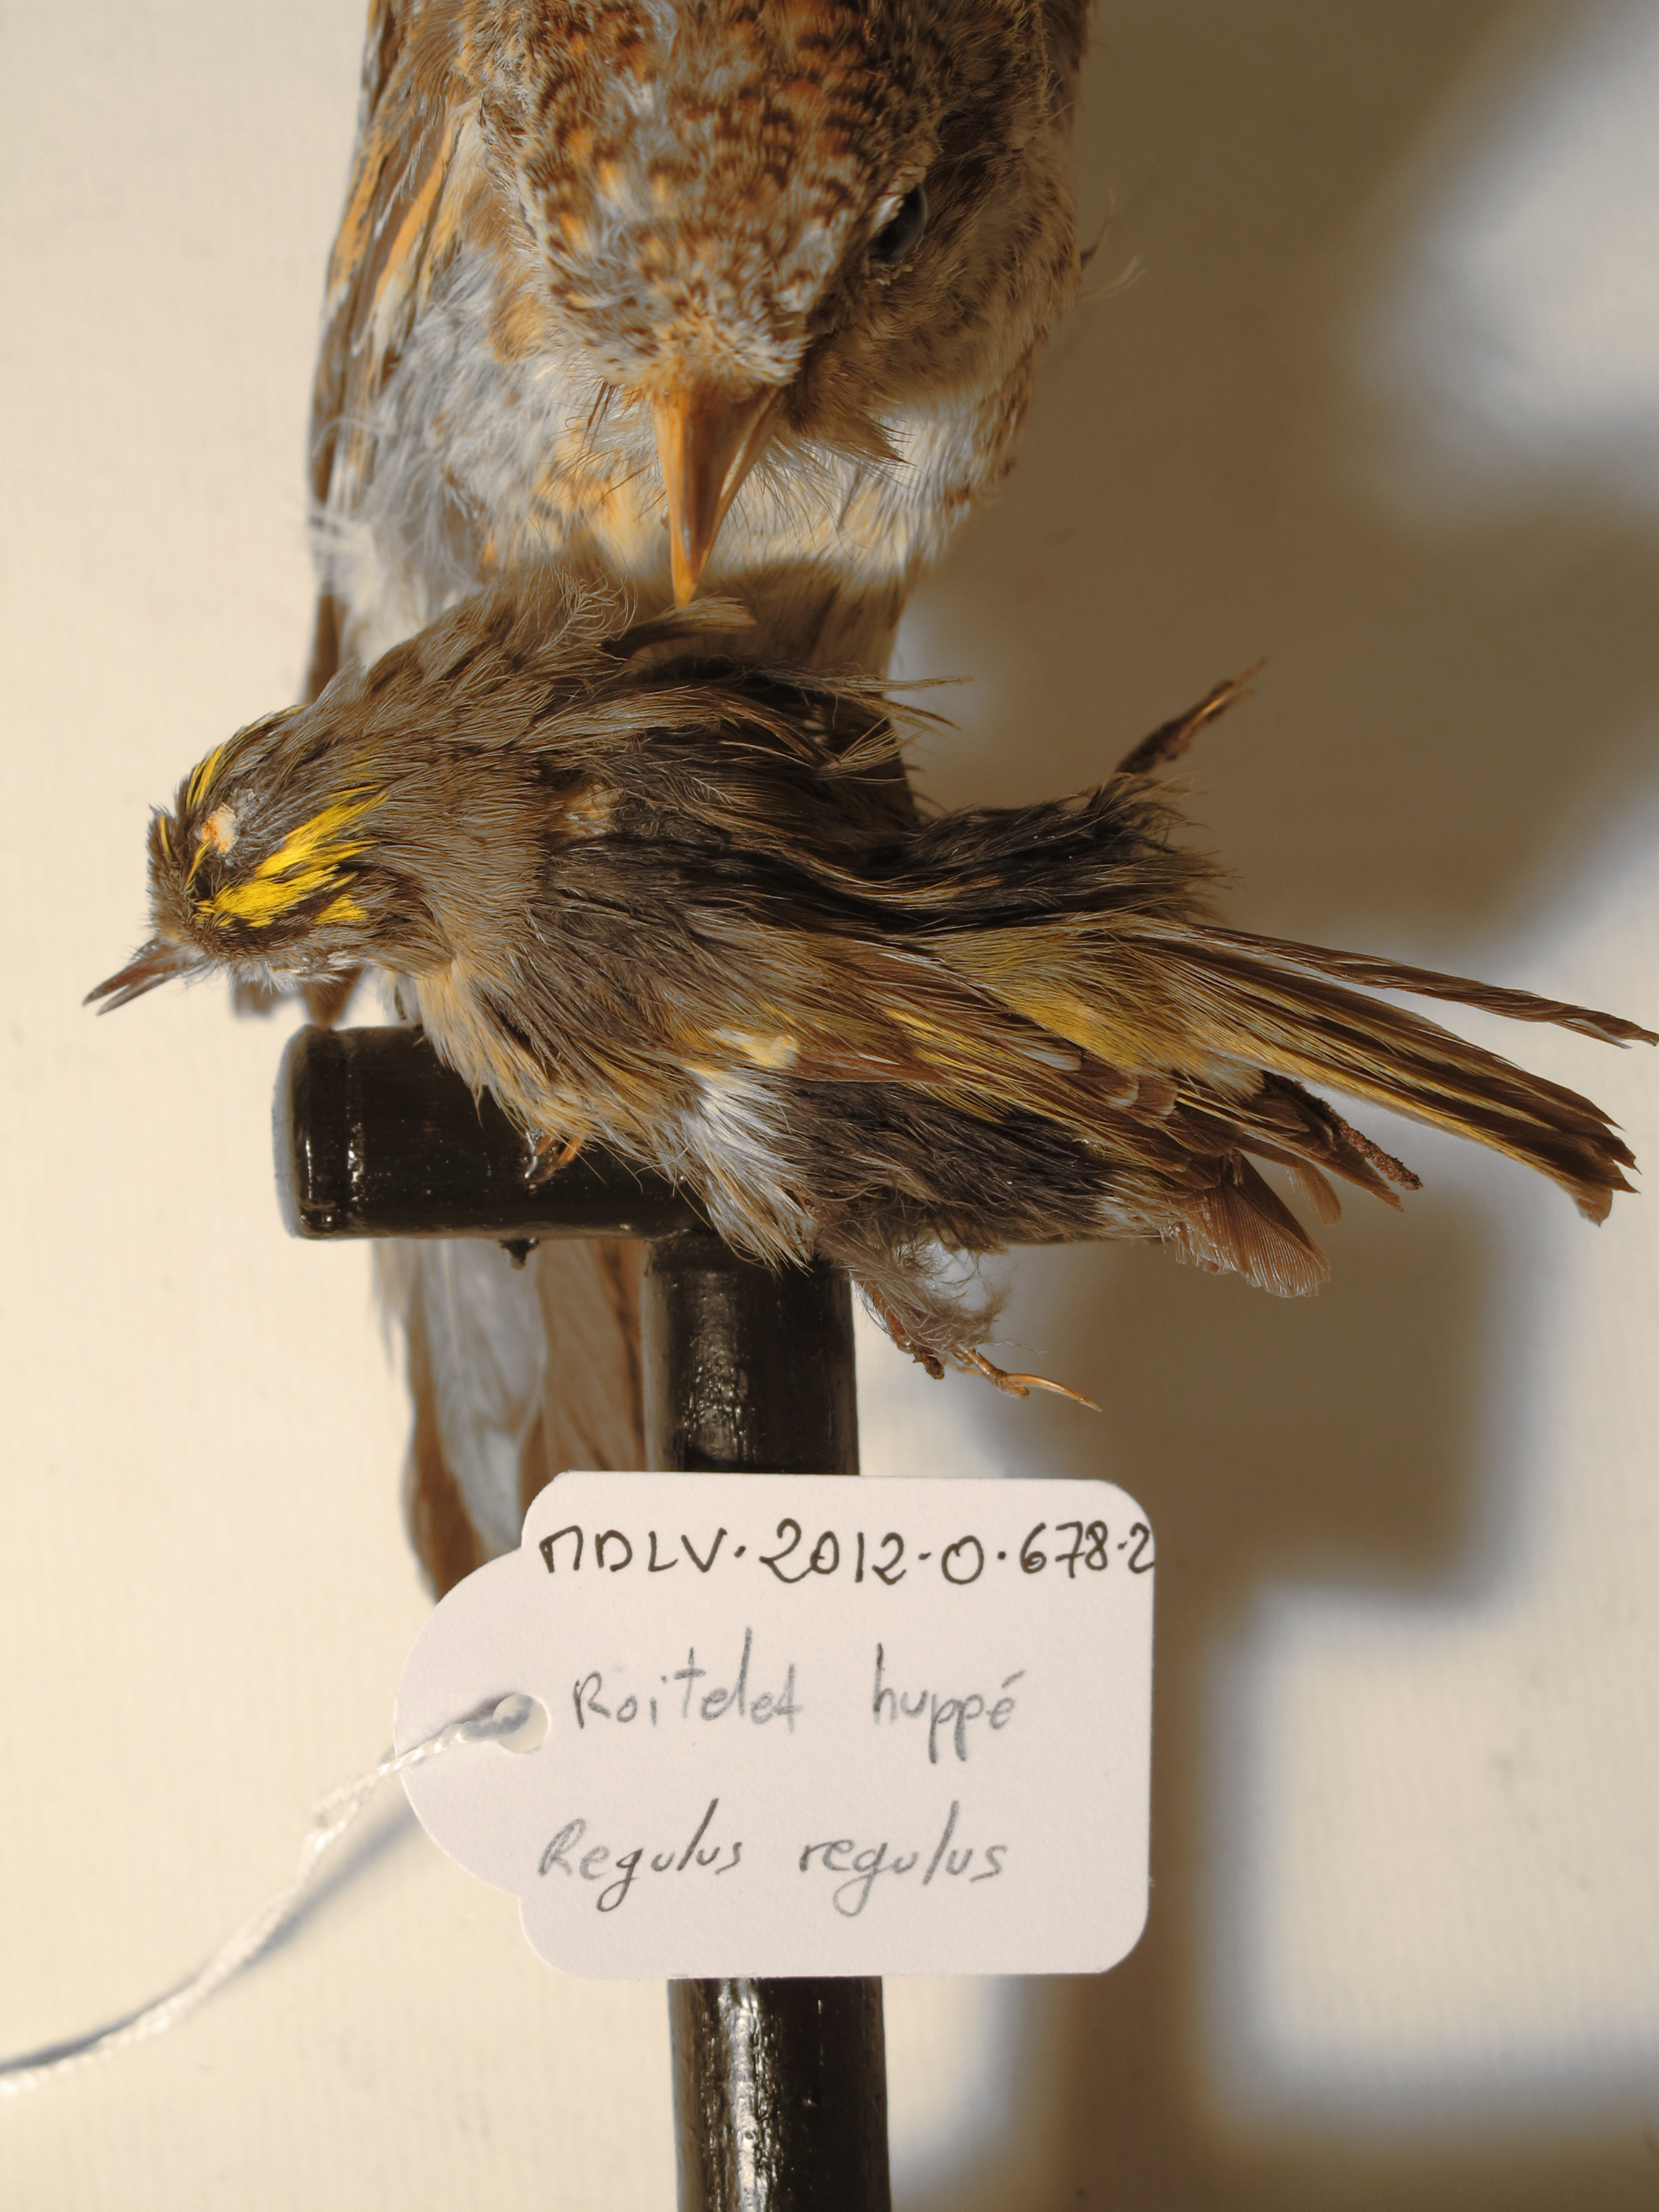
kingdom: Animalia
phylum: Chordata
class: Aves
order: Passeriformes
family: Regulidae
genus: Regulus
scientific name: Regulus regulus
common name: Goldcrest
